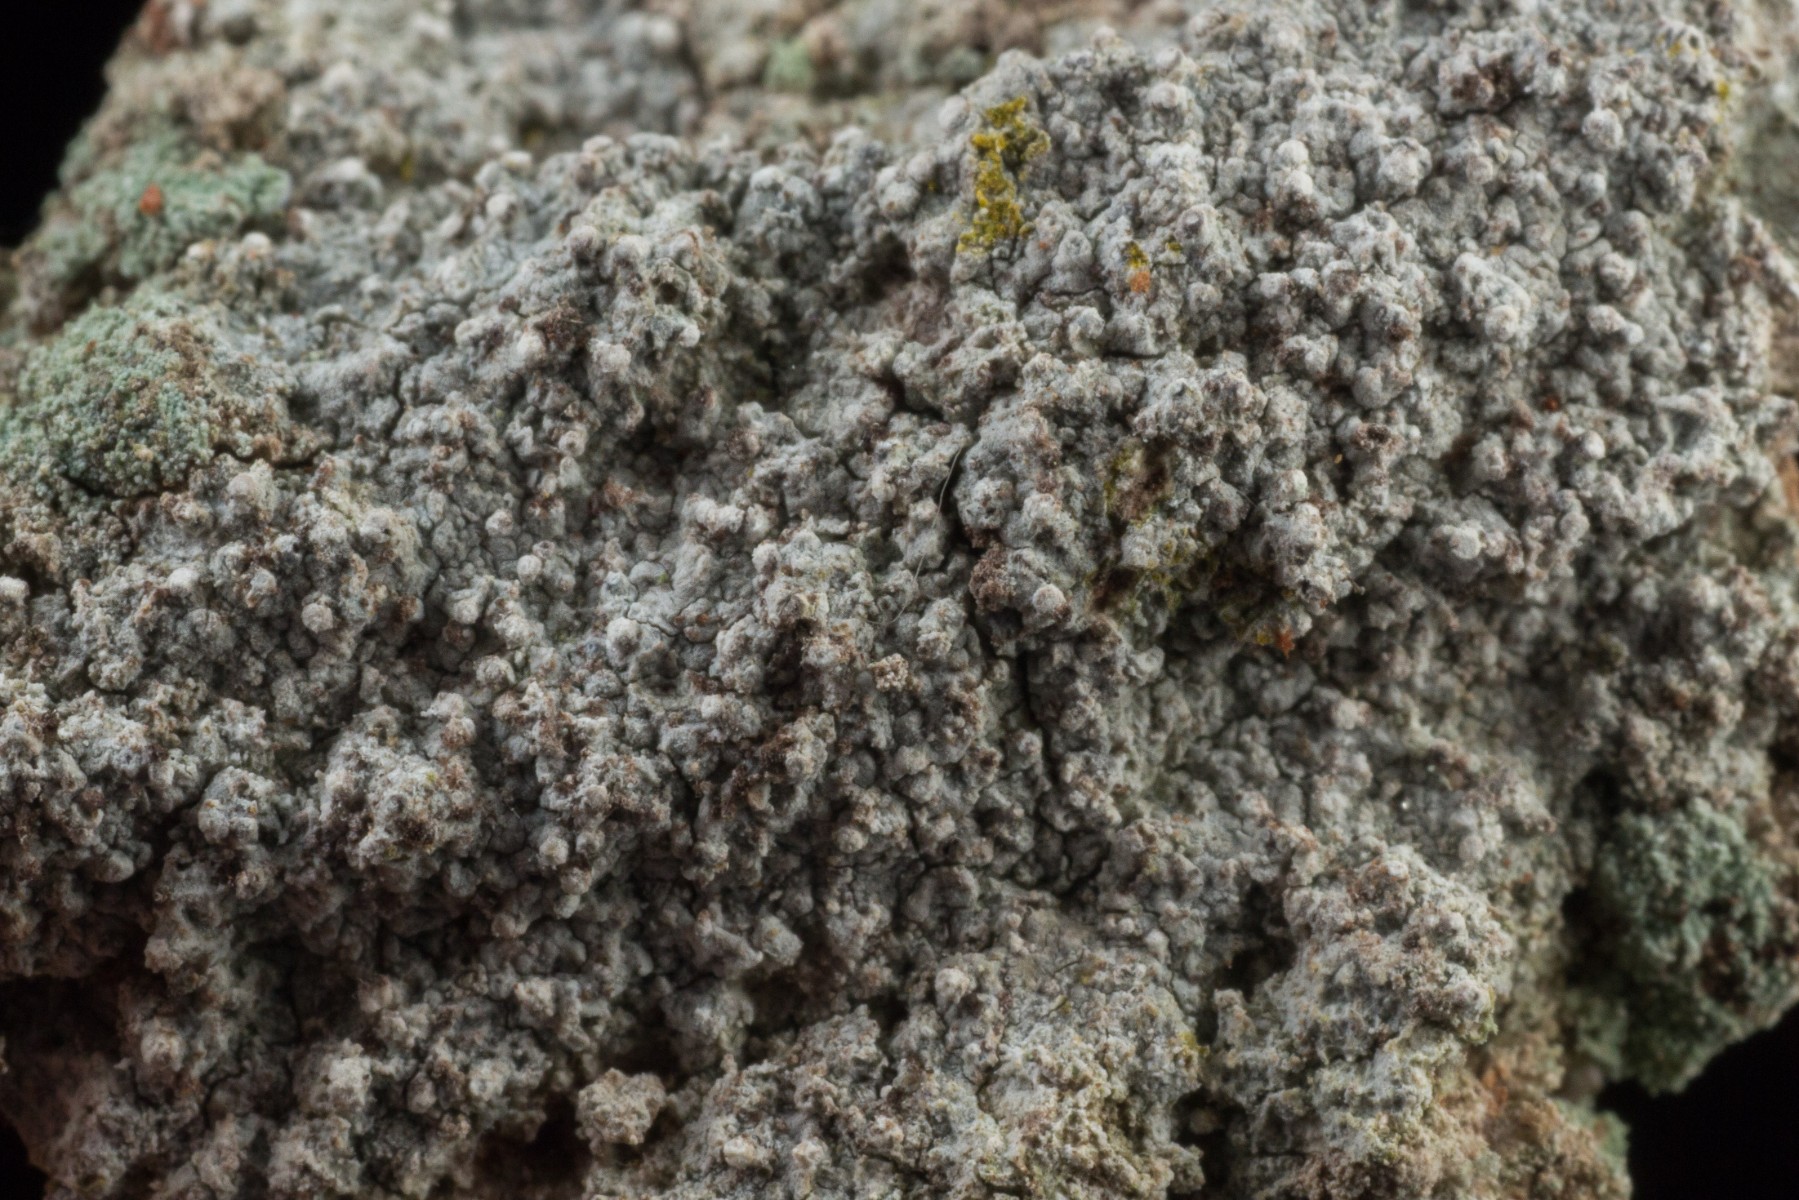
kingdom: Fungi
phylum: Ascomycota
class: Arthoniomycetes
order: Arthoniales
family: Roccellaceae
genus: Lecanactis
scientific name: Lecanactis abietina
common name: grå dugskivelav
